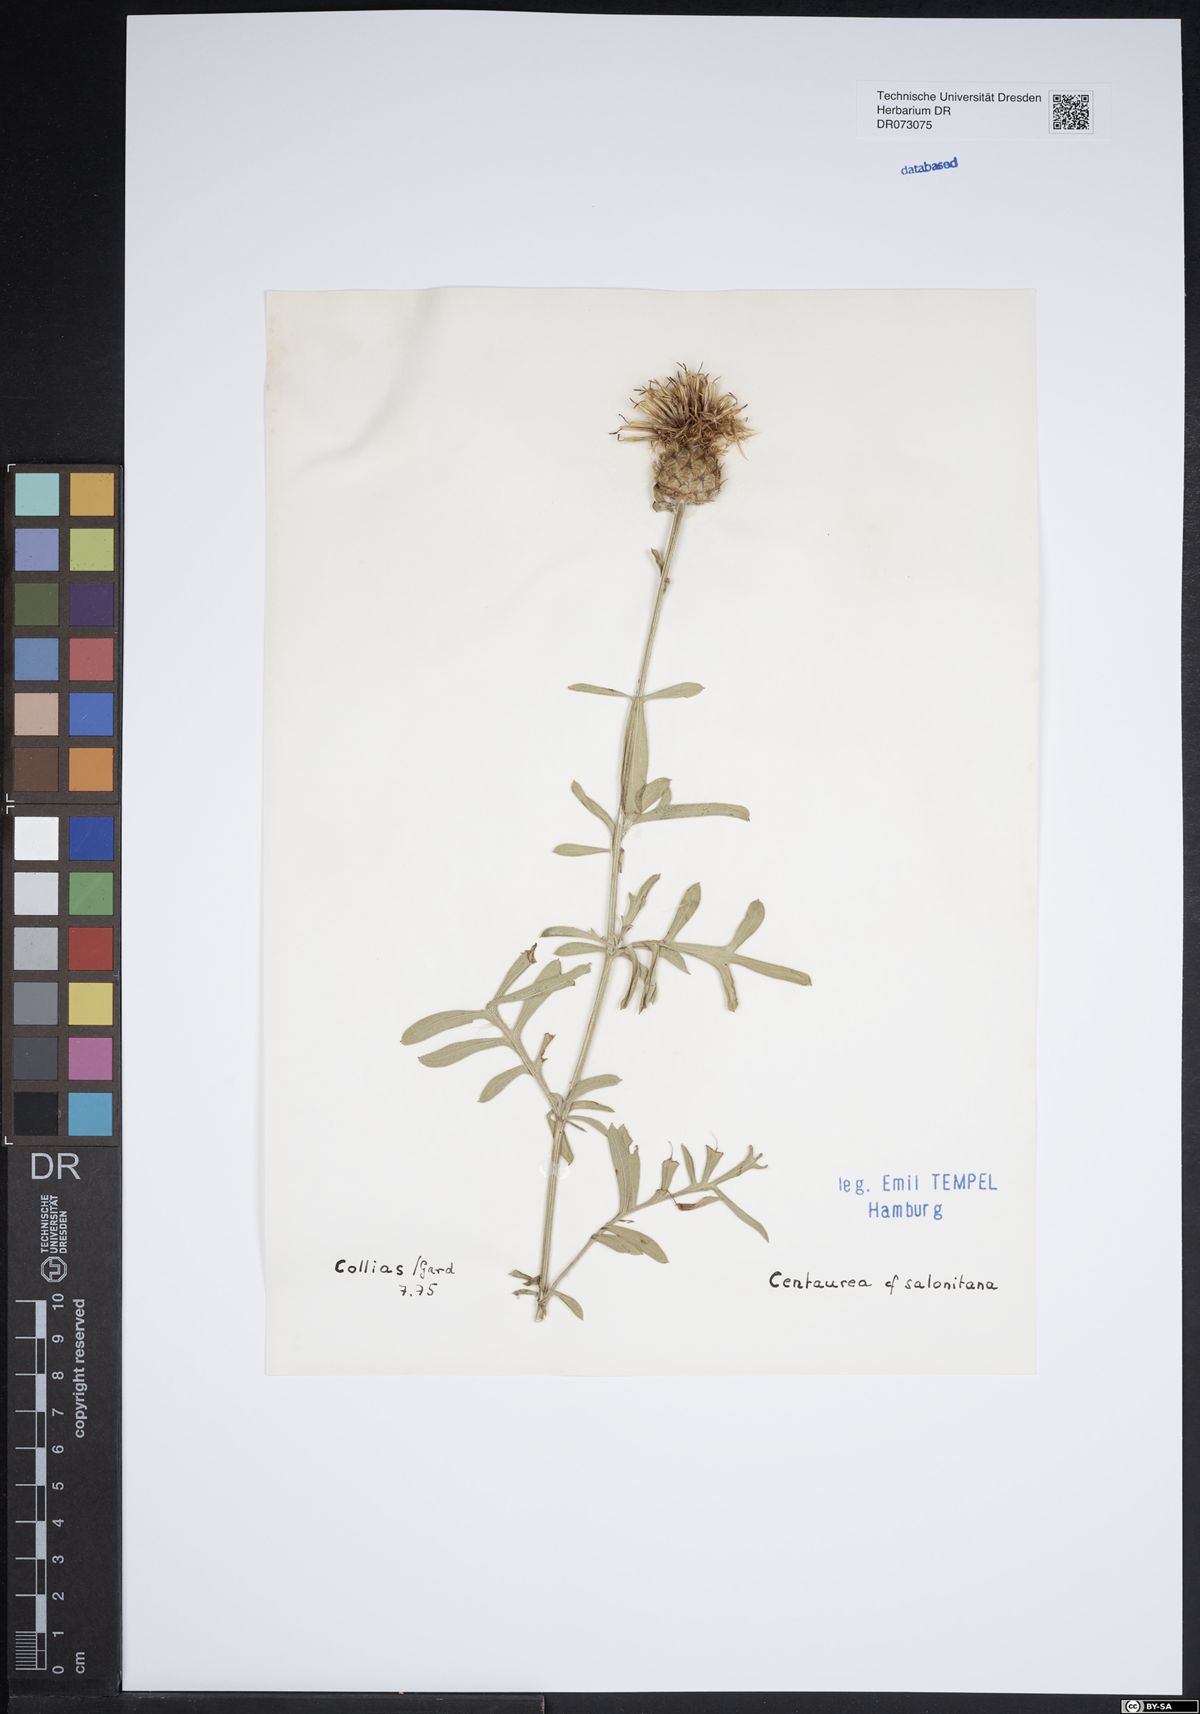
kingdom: Plantae
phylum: Tracheophyta
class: Magnoliopsida
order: Asterales
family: Asteraceae
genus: Centaurea
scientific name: Centaurea aspera
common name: Rough star-thistle
